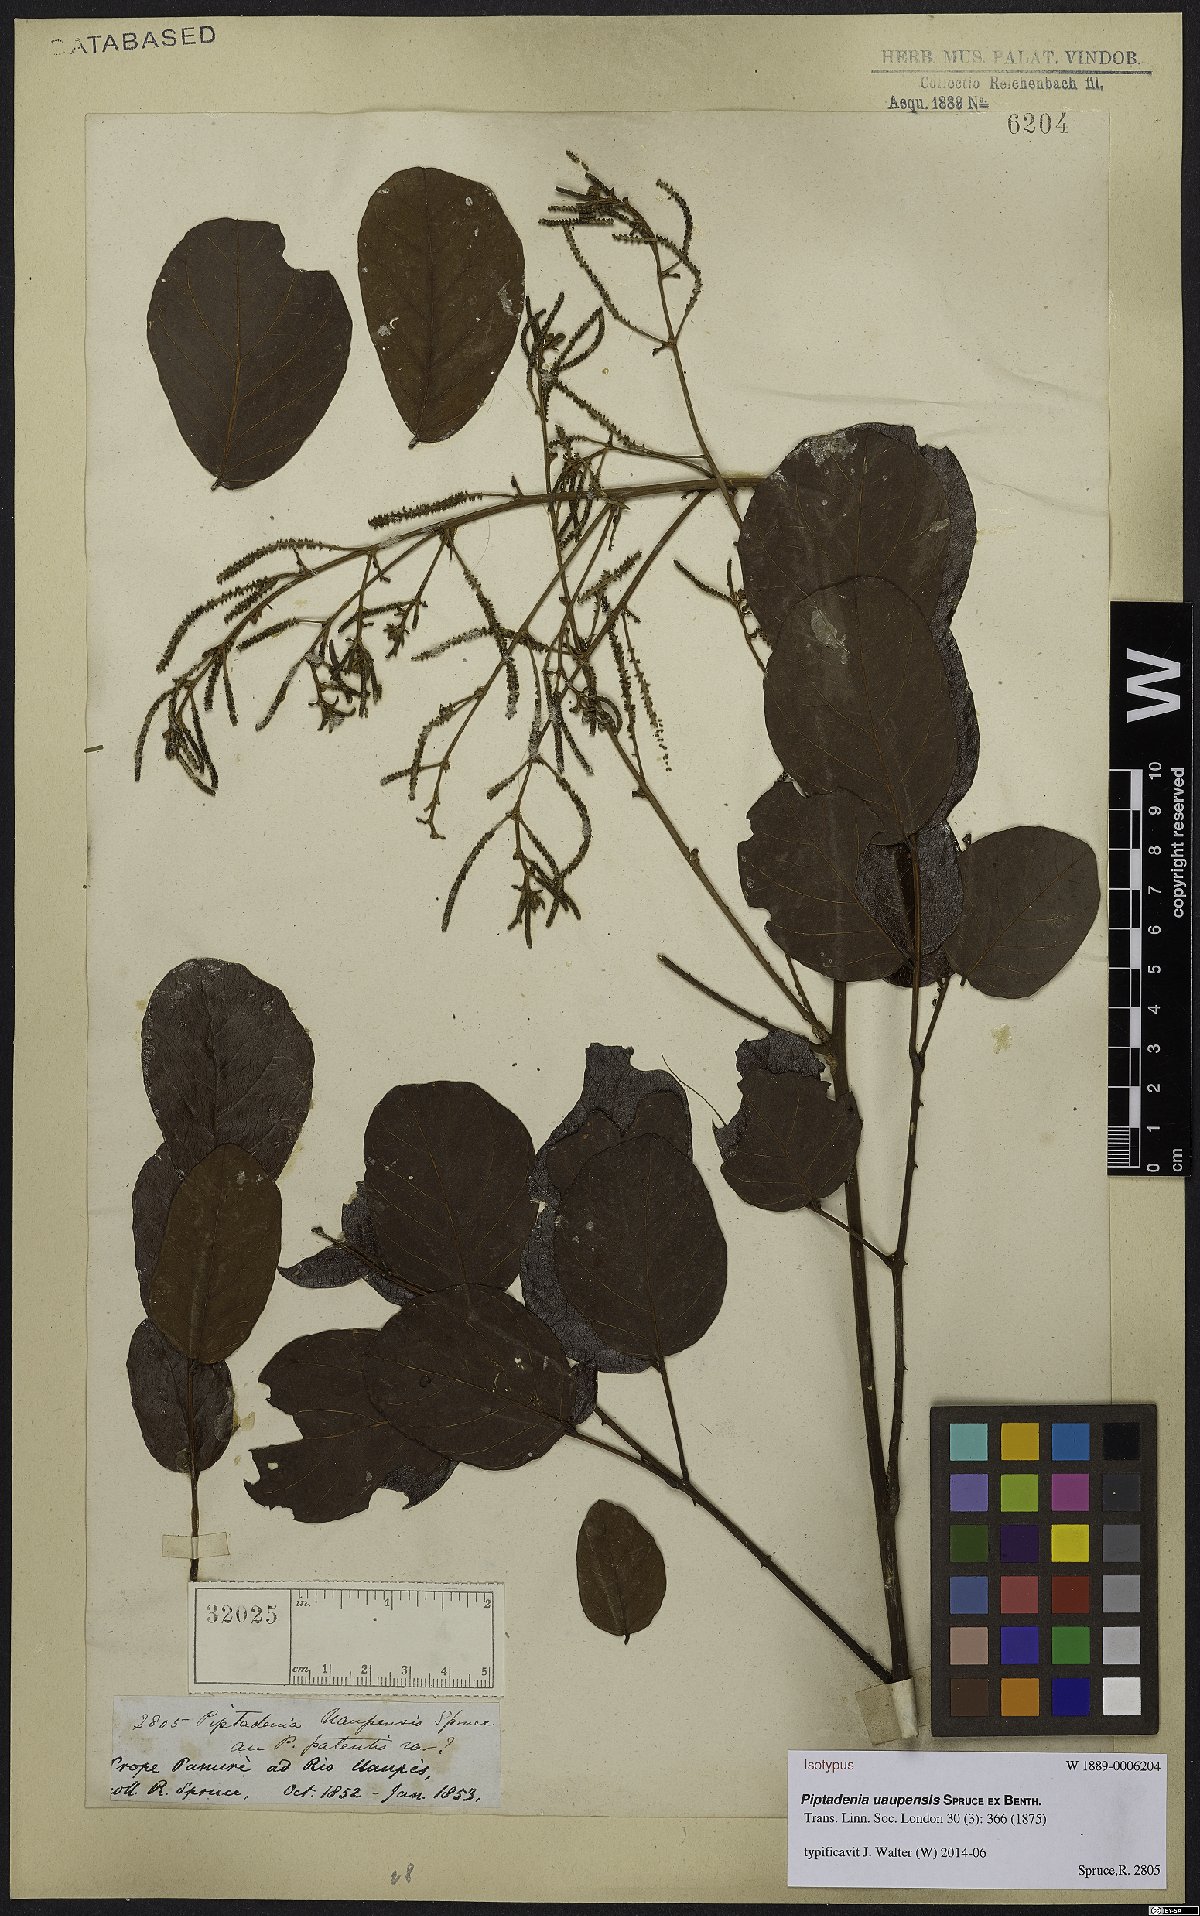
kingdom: Plantae
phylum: Tracheophyta
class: Magnoliopsida
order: Fabales
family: Fabaceae
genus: Piptadenia
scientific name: Piptadenia uaupensis
